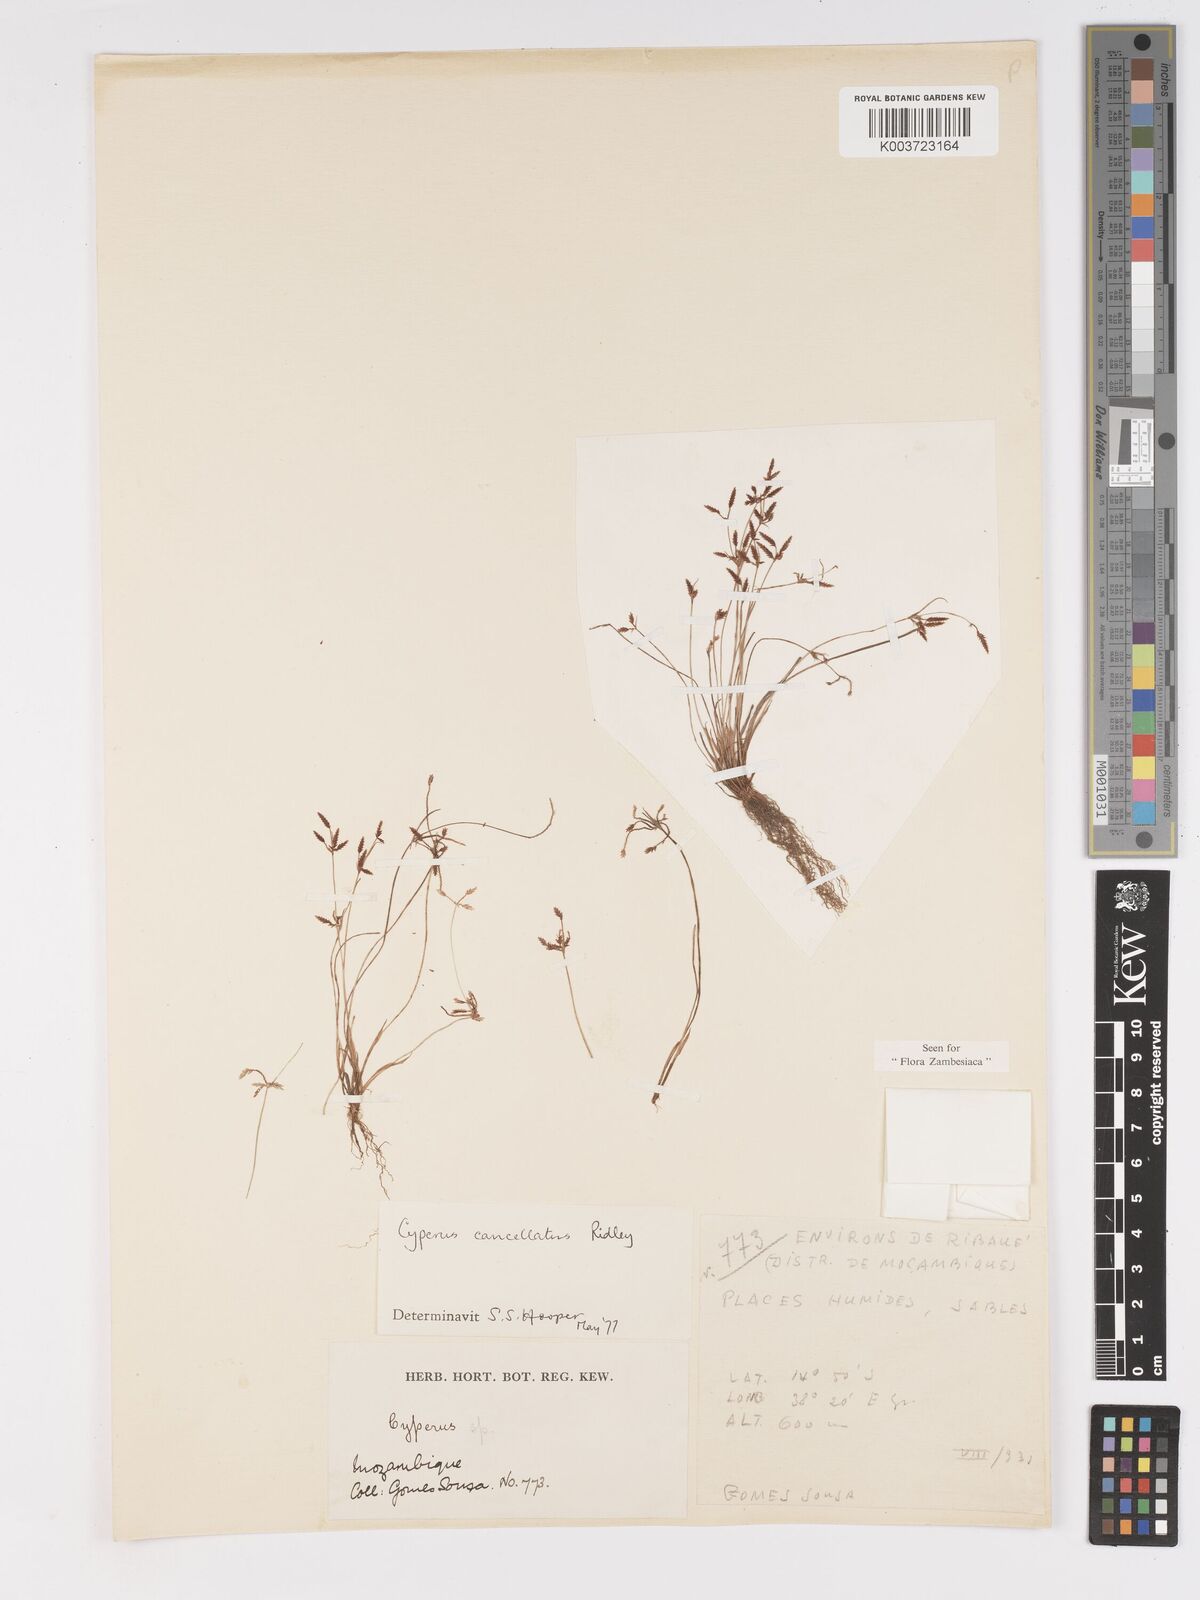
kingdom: Plantae
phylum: Tracheophyta
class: Liliopsida
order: Poales
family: Cyperaceae
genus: Cyperus
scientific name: Cyperus cancellatus
